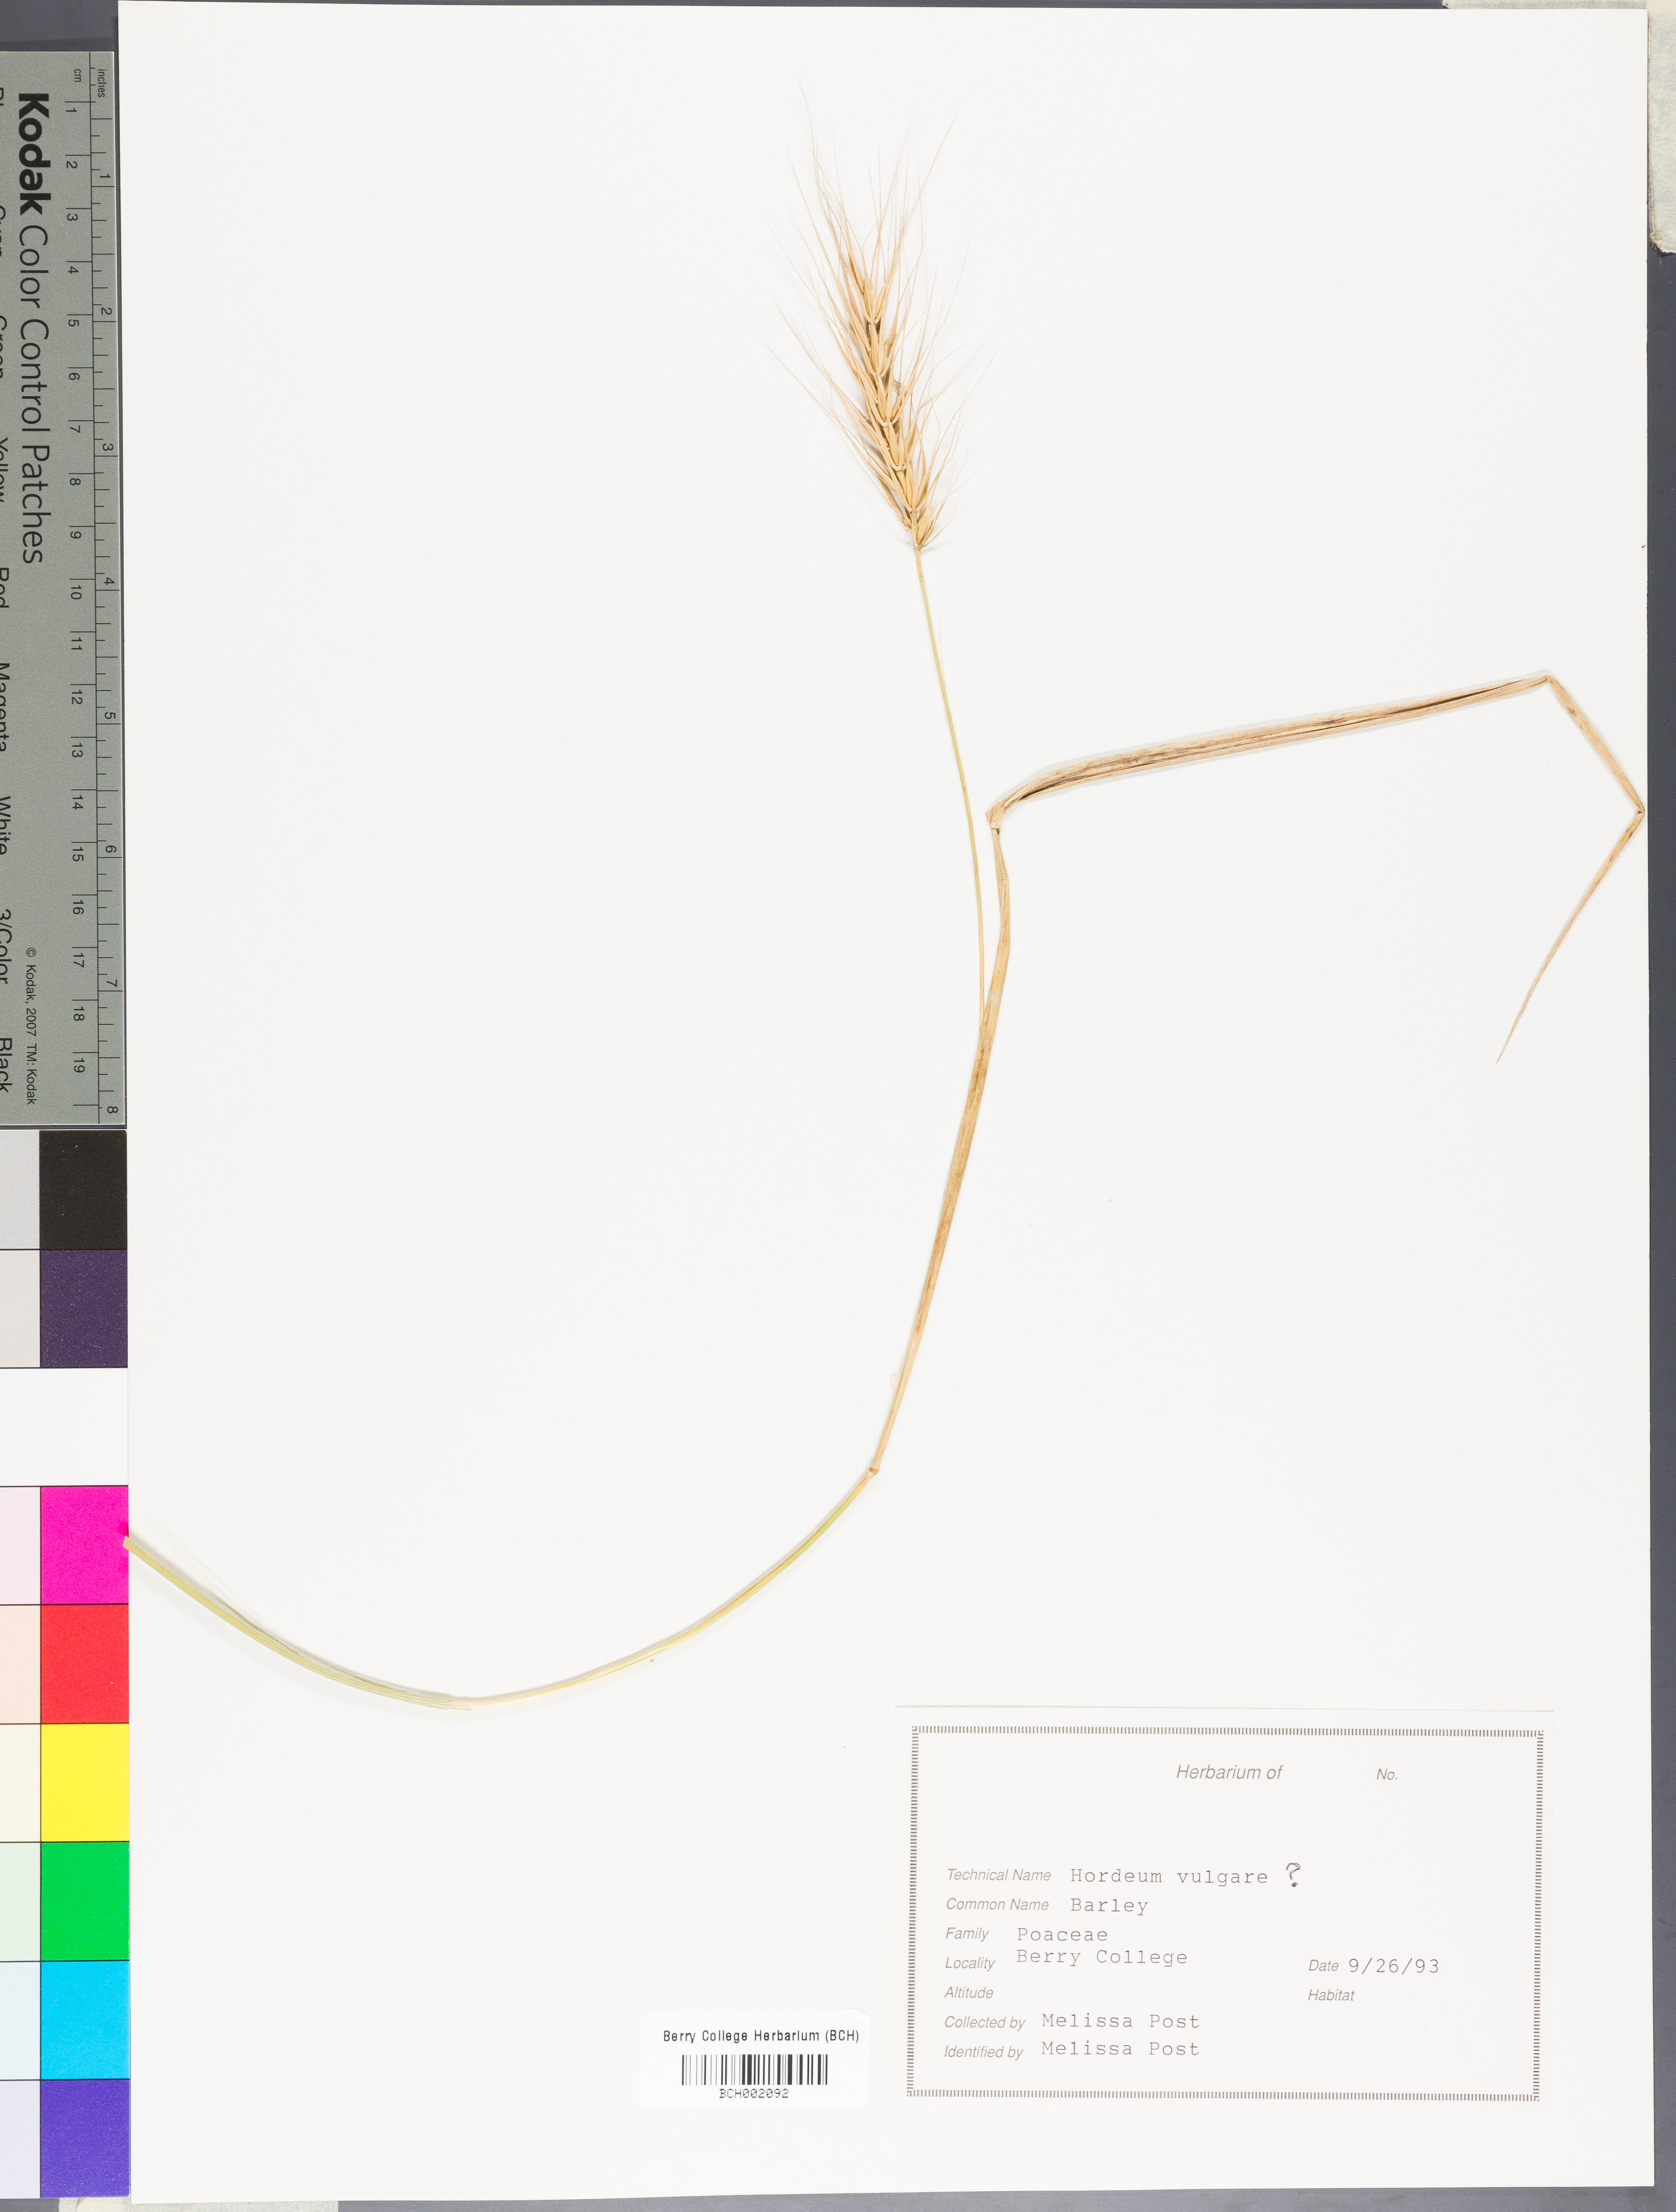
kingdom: Plantae
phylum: Tracheophyta
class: Liliopsida
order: Poales
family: Poaceae
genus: Hordeum
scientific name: Hordeum vulgare
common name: Common barley
